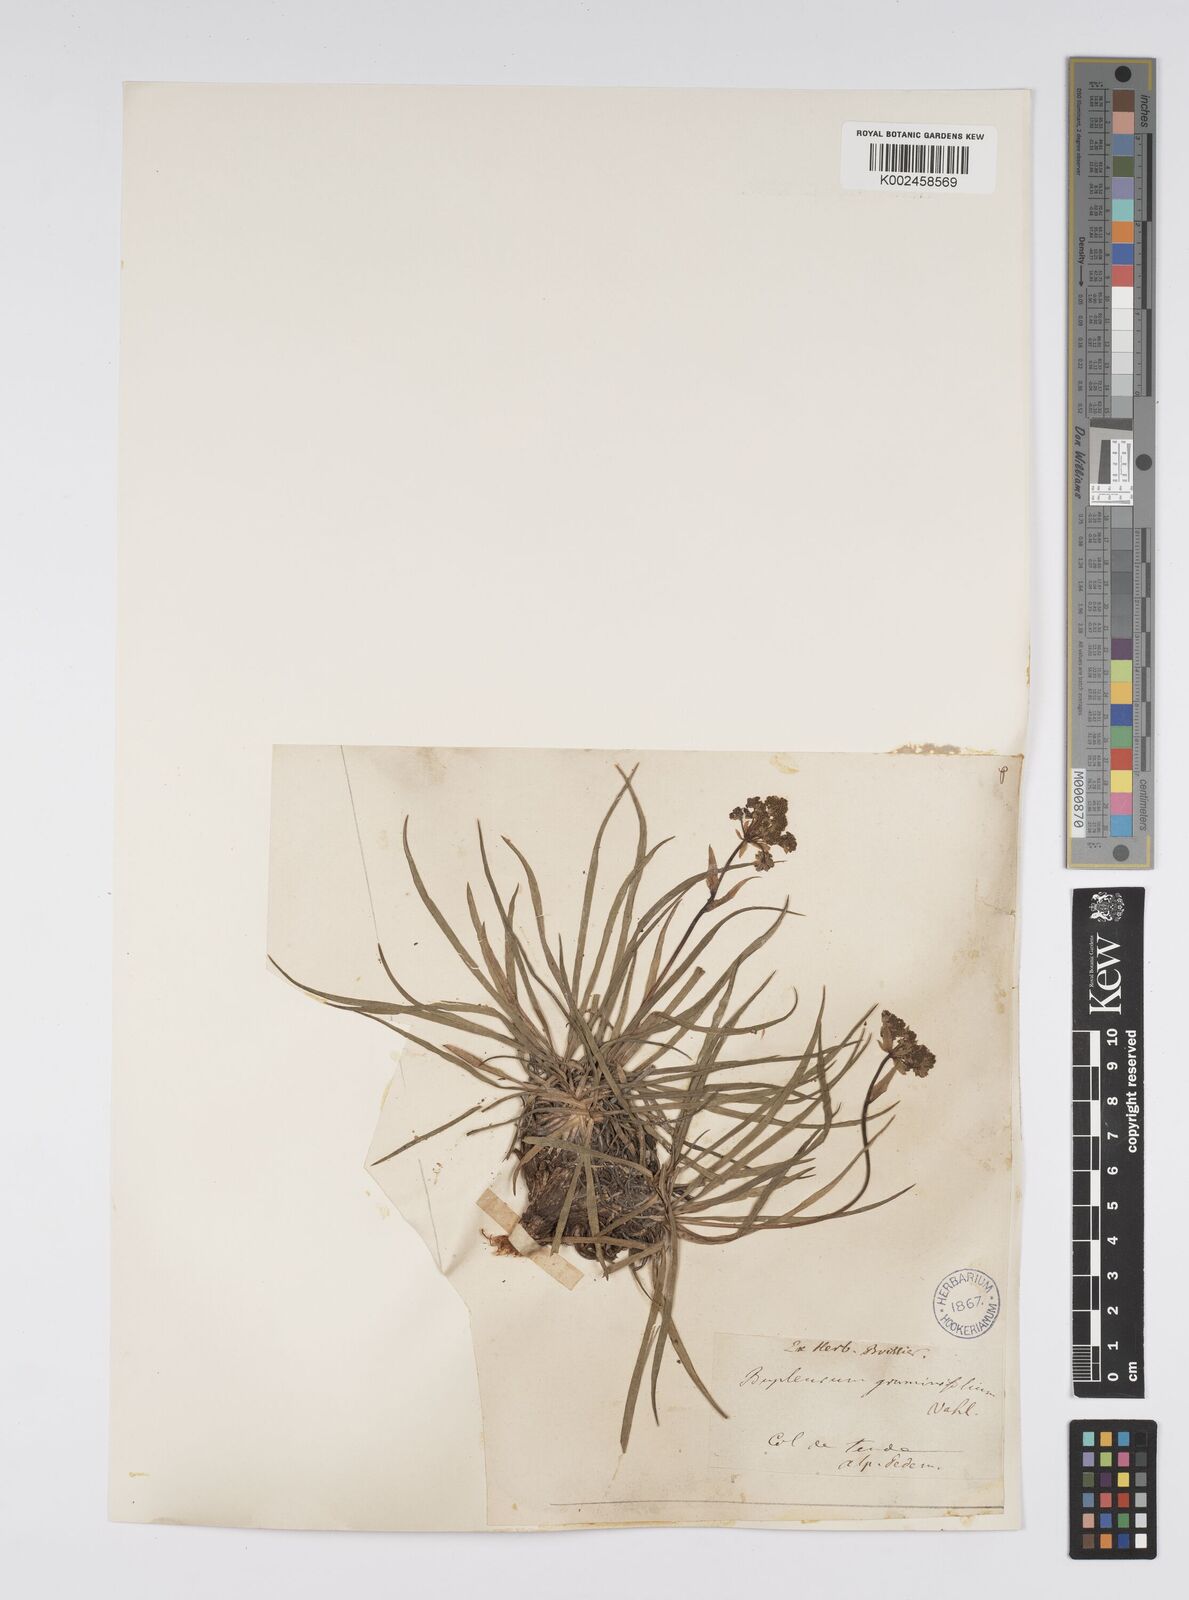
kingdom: Plantae
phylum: Tracheophyta
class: Magnoliopsida
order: Apiales
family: Apiaceae
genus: Bupleurum
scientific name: Bupleurum petraeum
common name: Rock hare's-ear
